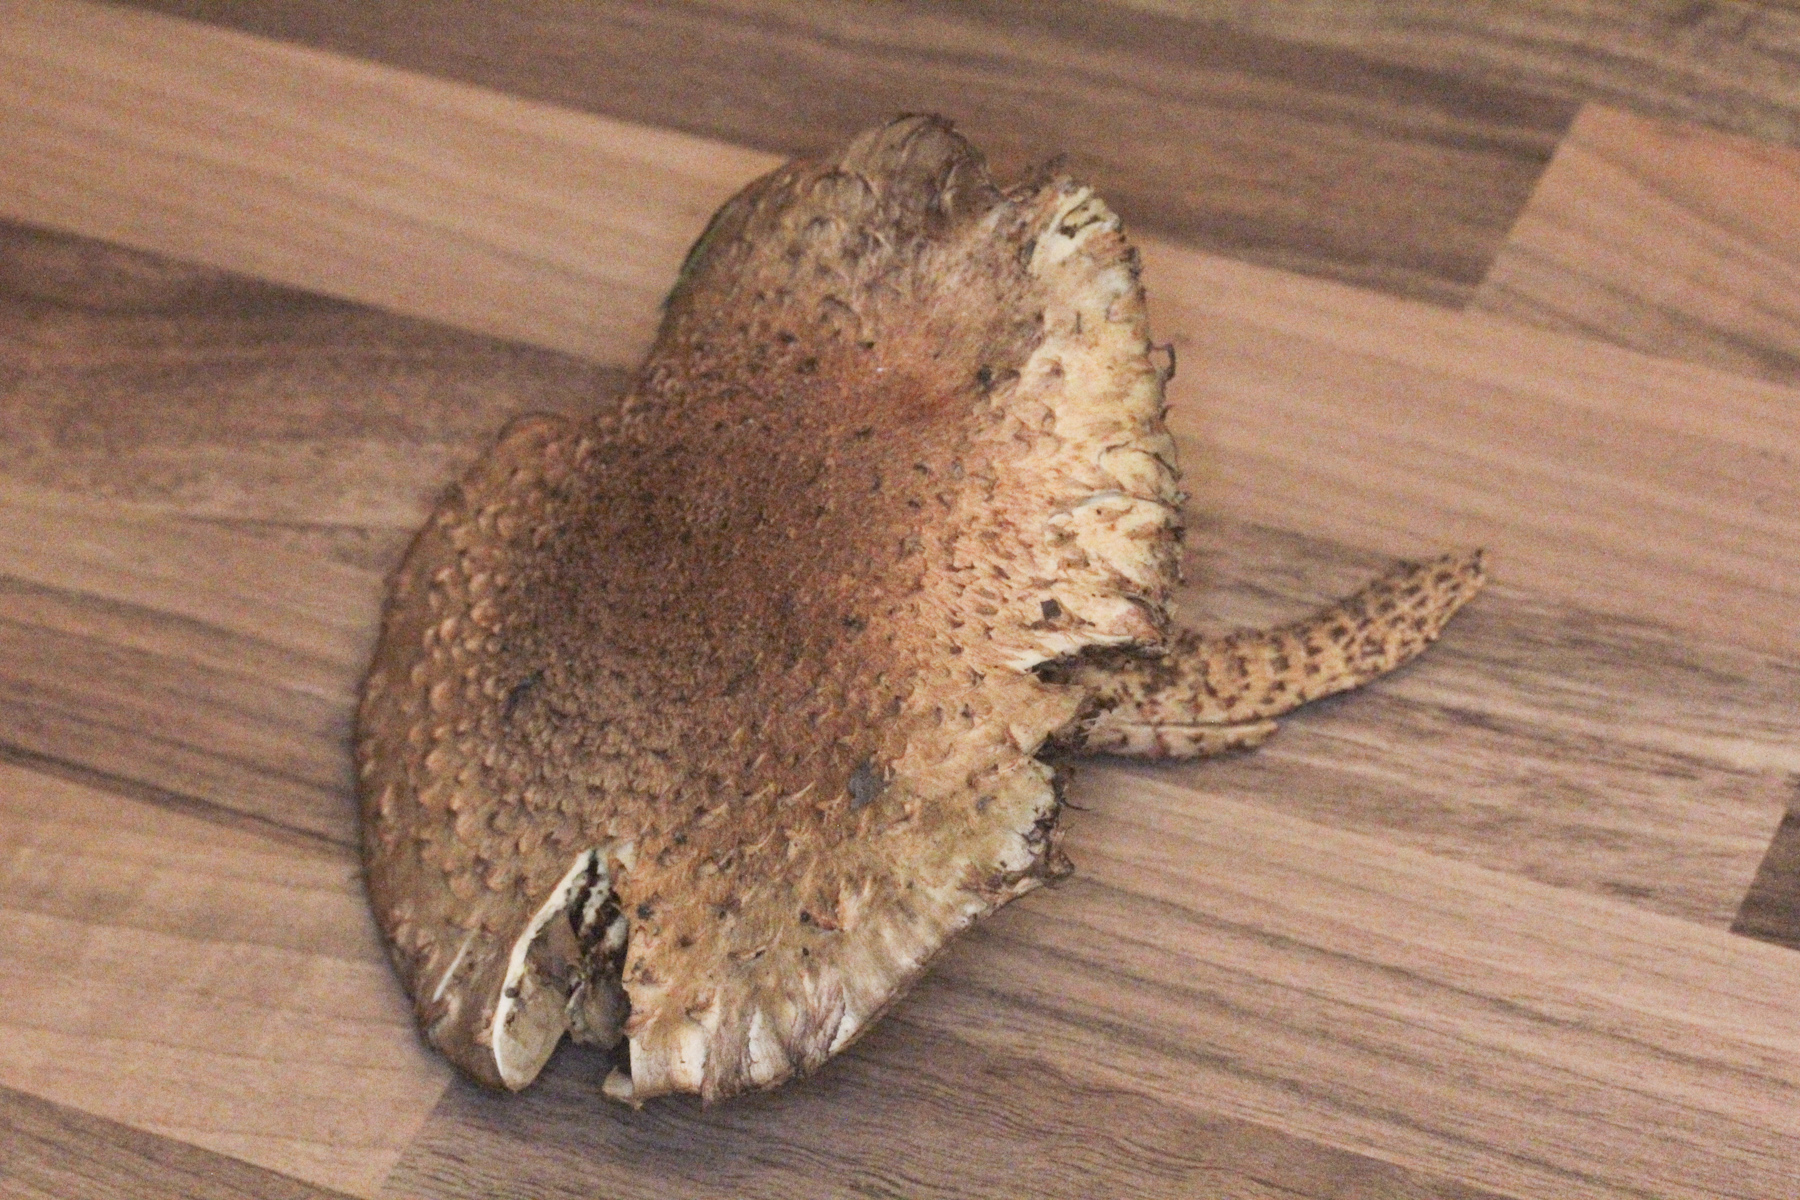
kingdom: Fungi
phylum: Basidiomycota
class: Agaricomycetes
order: Agaricales
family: Strophariaceae
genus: Pholiota
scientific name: Pholiota squarrosa
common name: Shaggy pholiota
